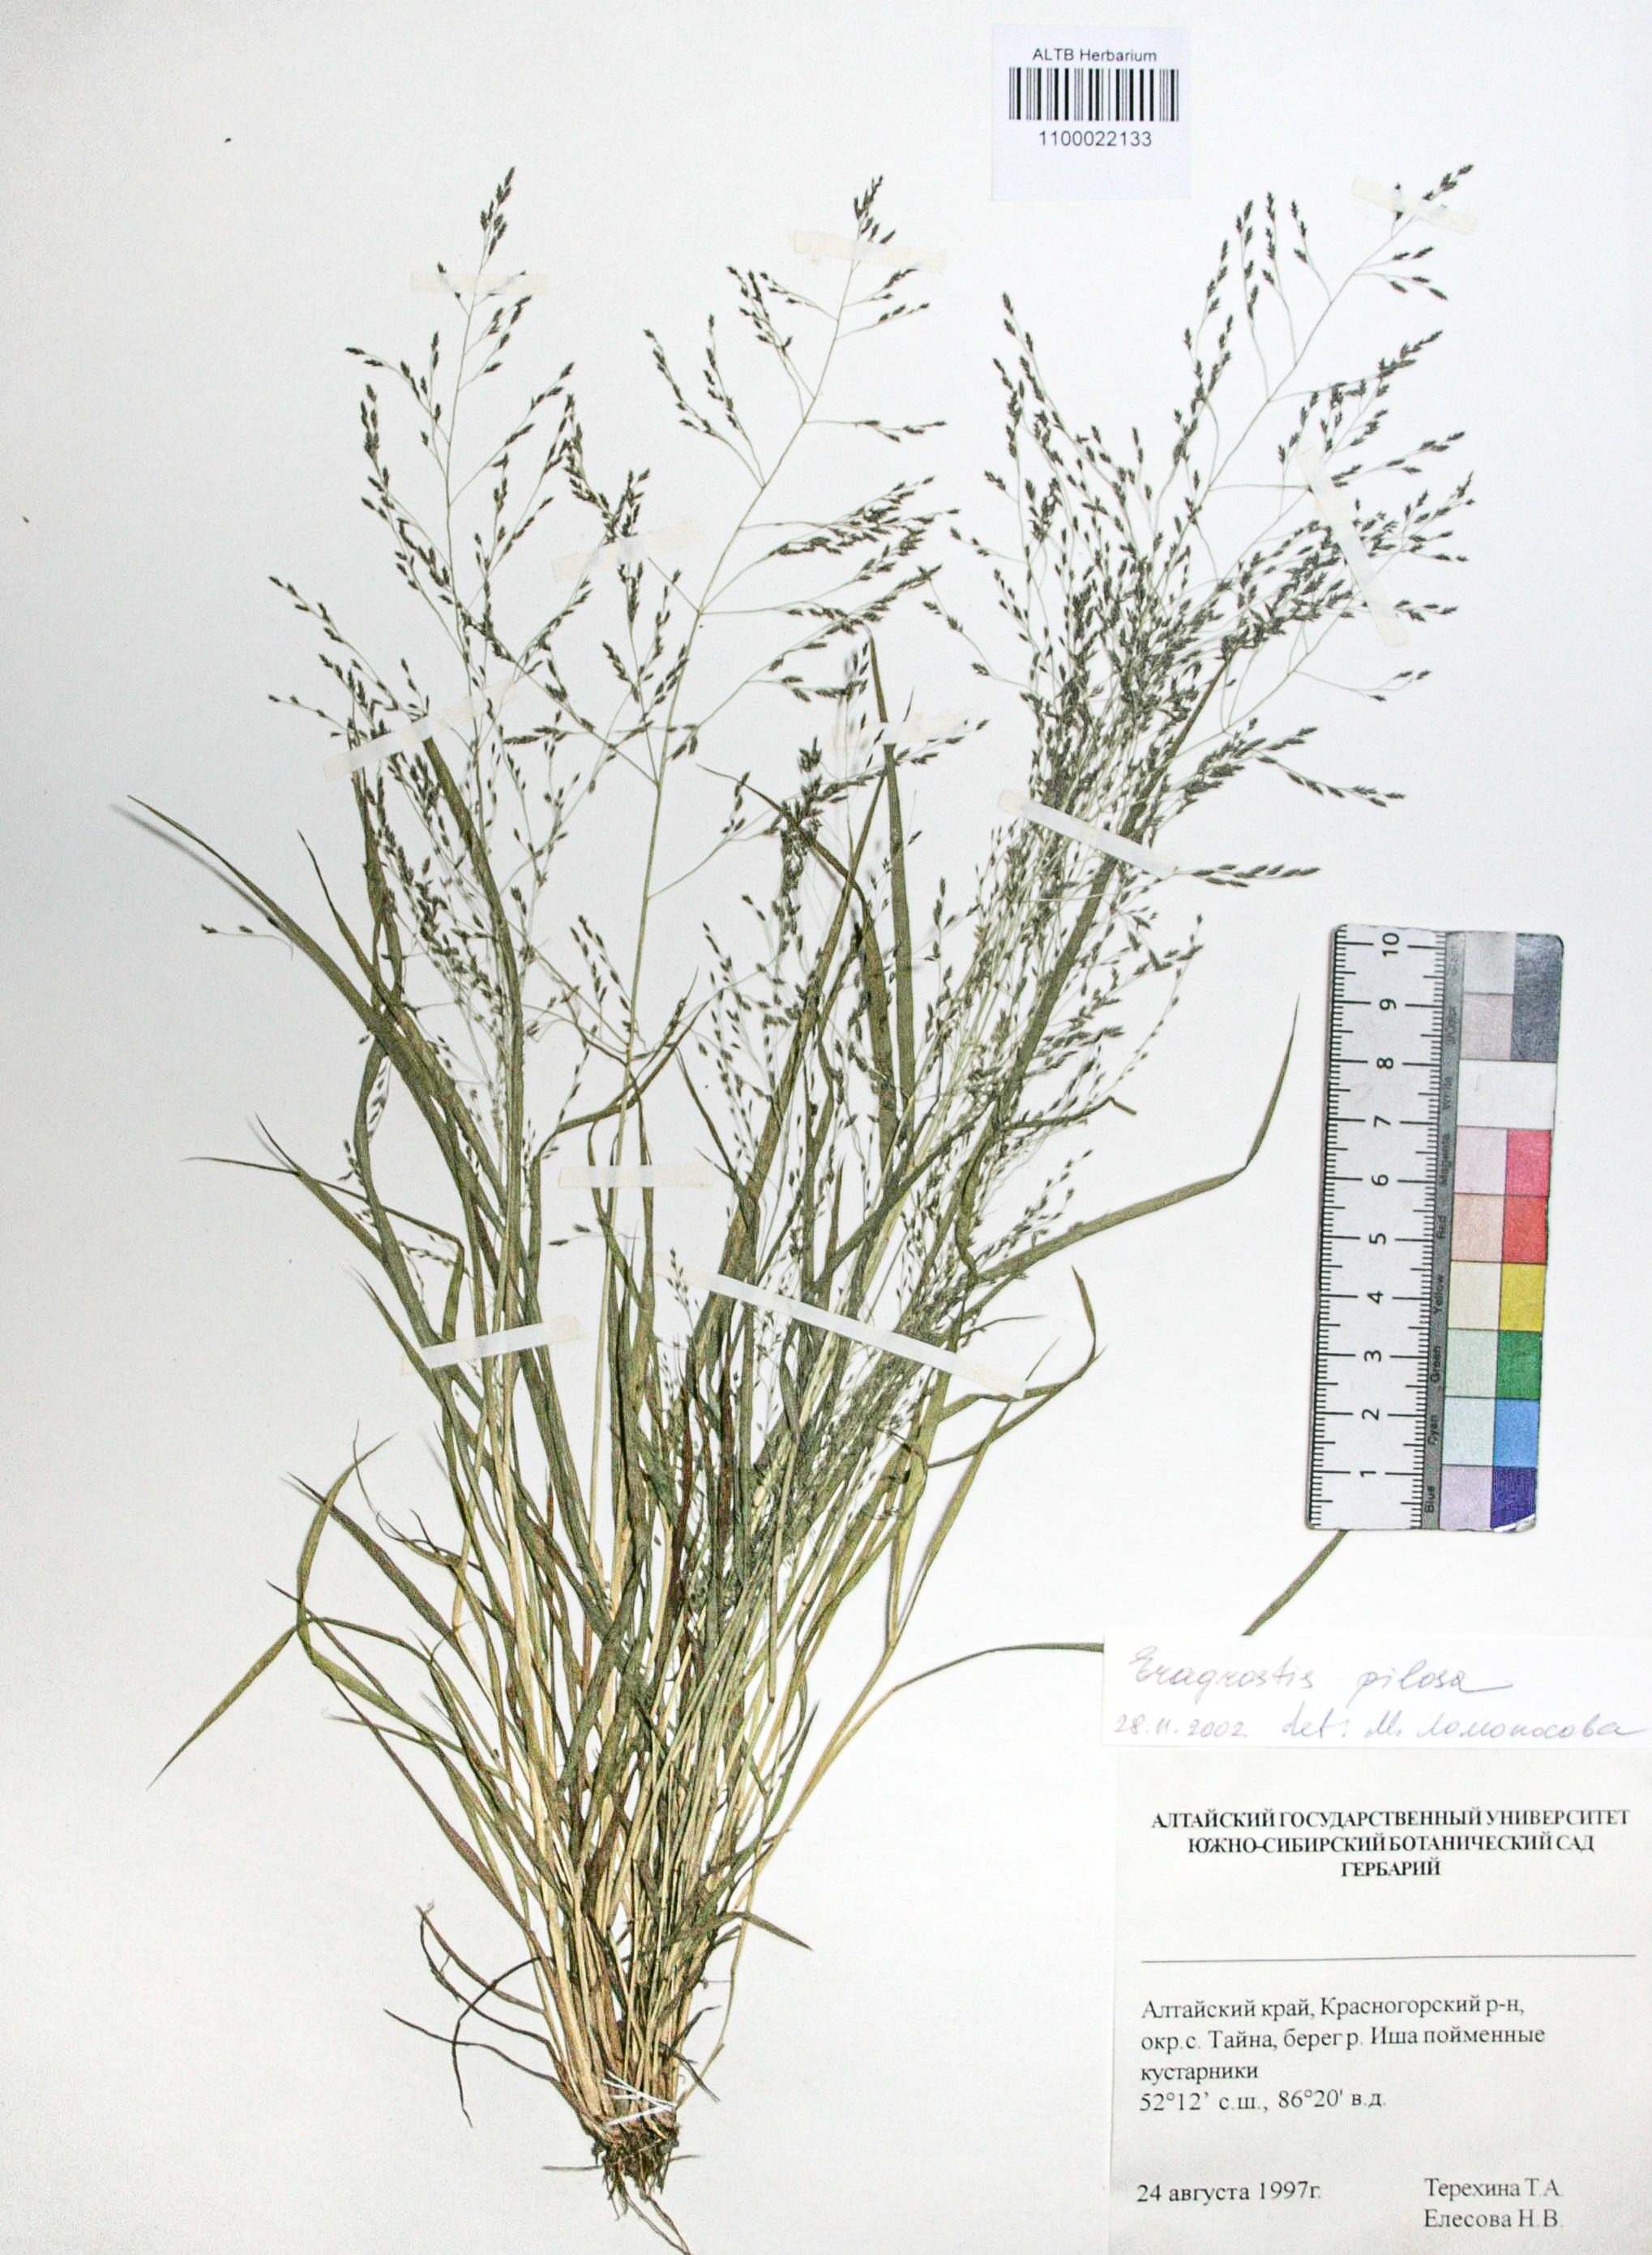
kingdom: Plantae
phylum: Tracheophyta
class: Liliopsida
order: Poales
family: Poaceae
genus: Eragrostis
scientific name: Eragrostis pilosa
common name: Indian lovegrass
